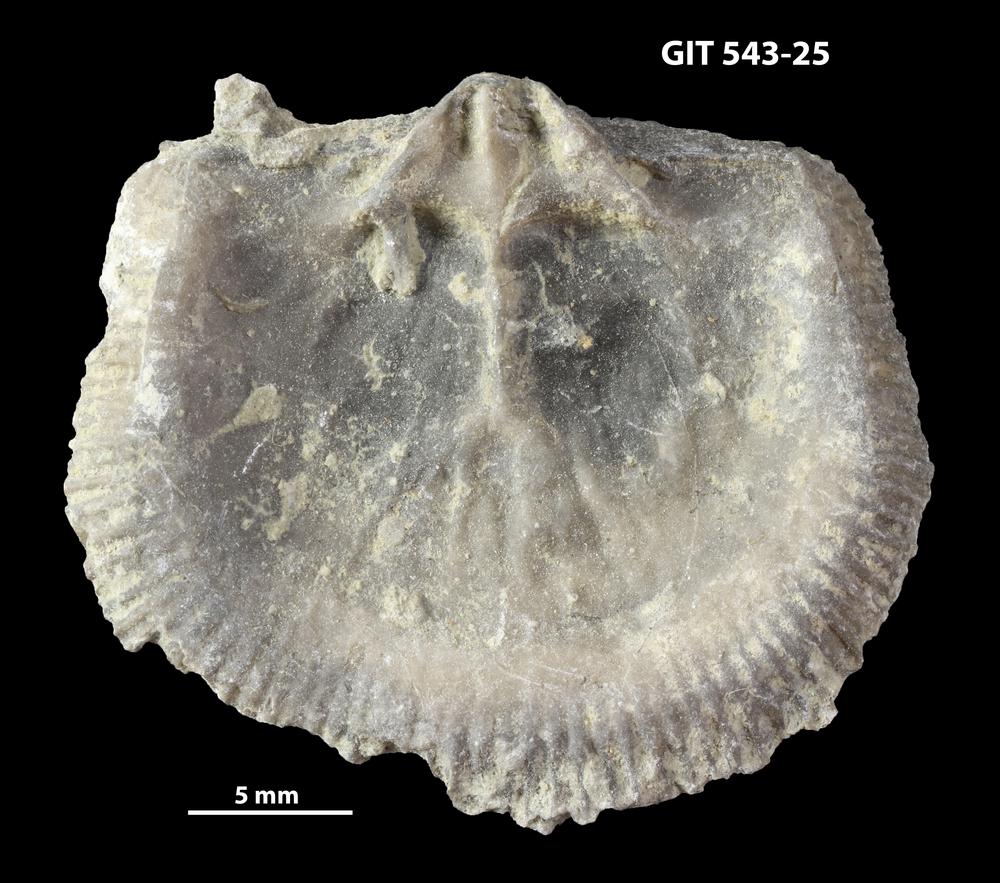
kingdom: Animalia
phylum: Brachiopoda
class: Rhynchonellata
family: Clitambonitidae
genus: Clitambonites
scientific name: Clitambonites Orthisina schmidti
